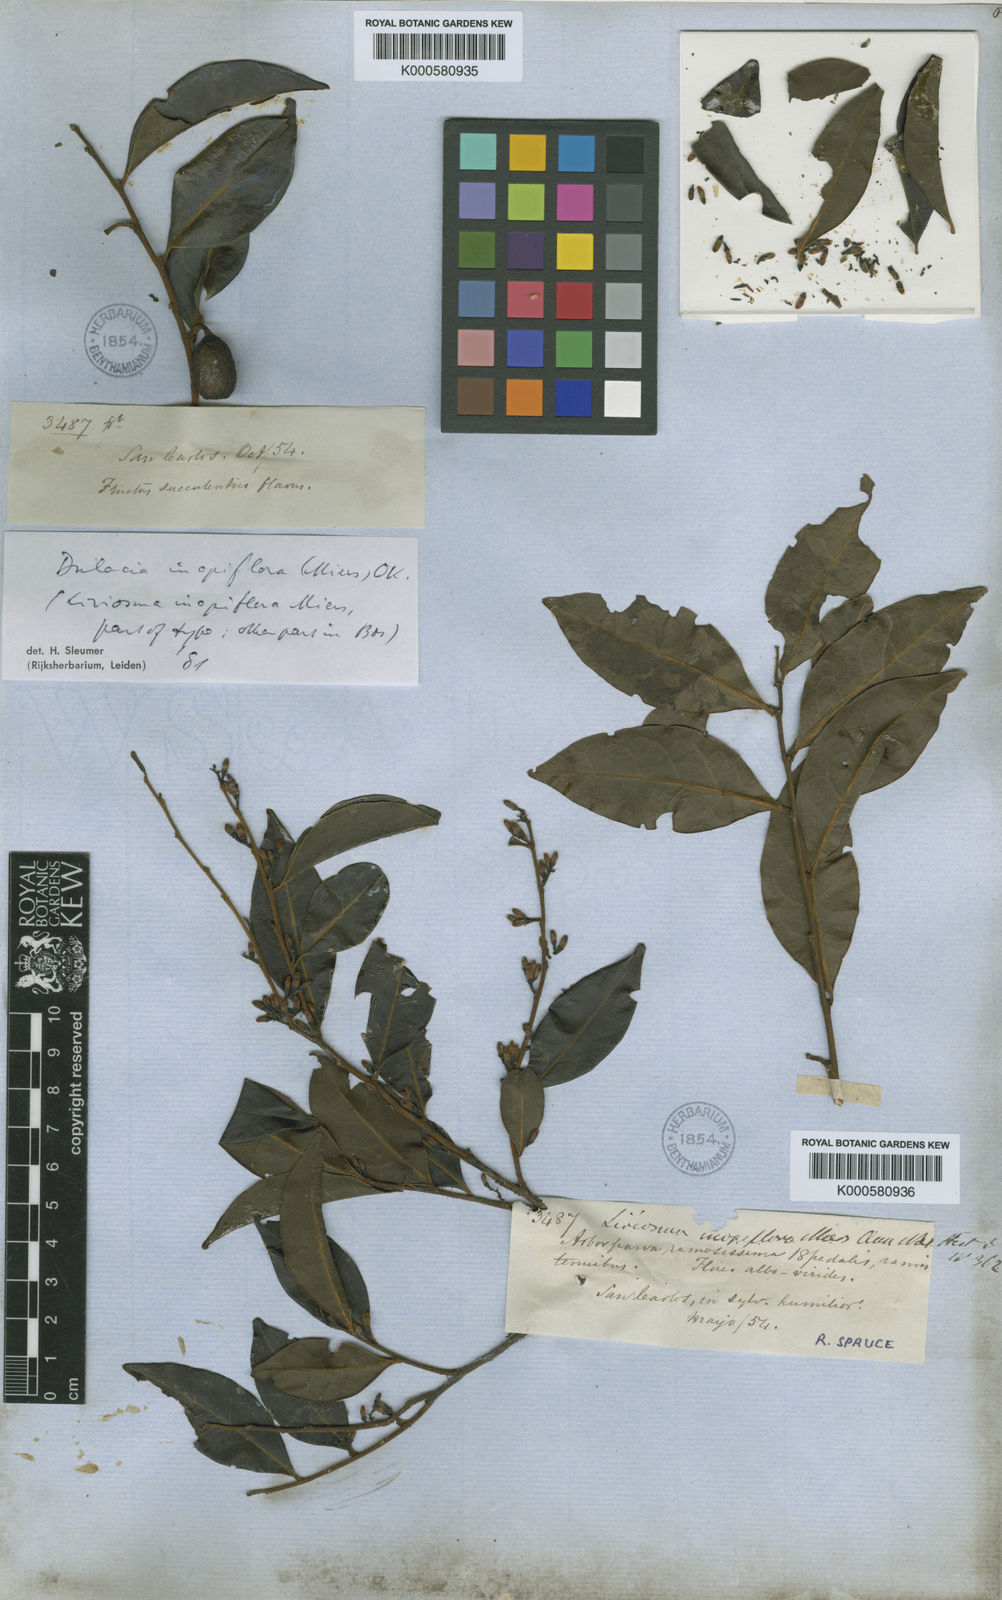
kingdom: Plantae
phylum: Tracheophyta
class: Magnoliopsida
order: Santalales
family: Olacaceae
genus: Dulacia
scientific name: Dulacia inopiflora
